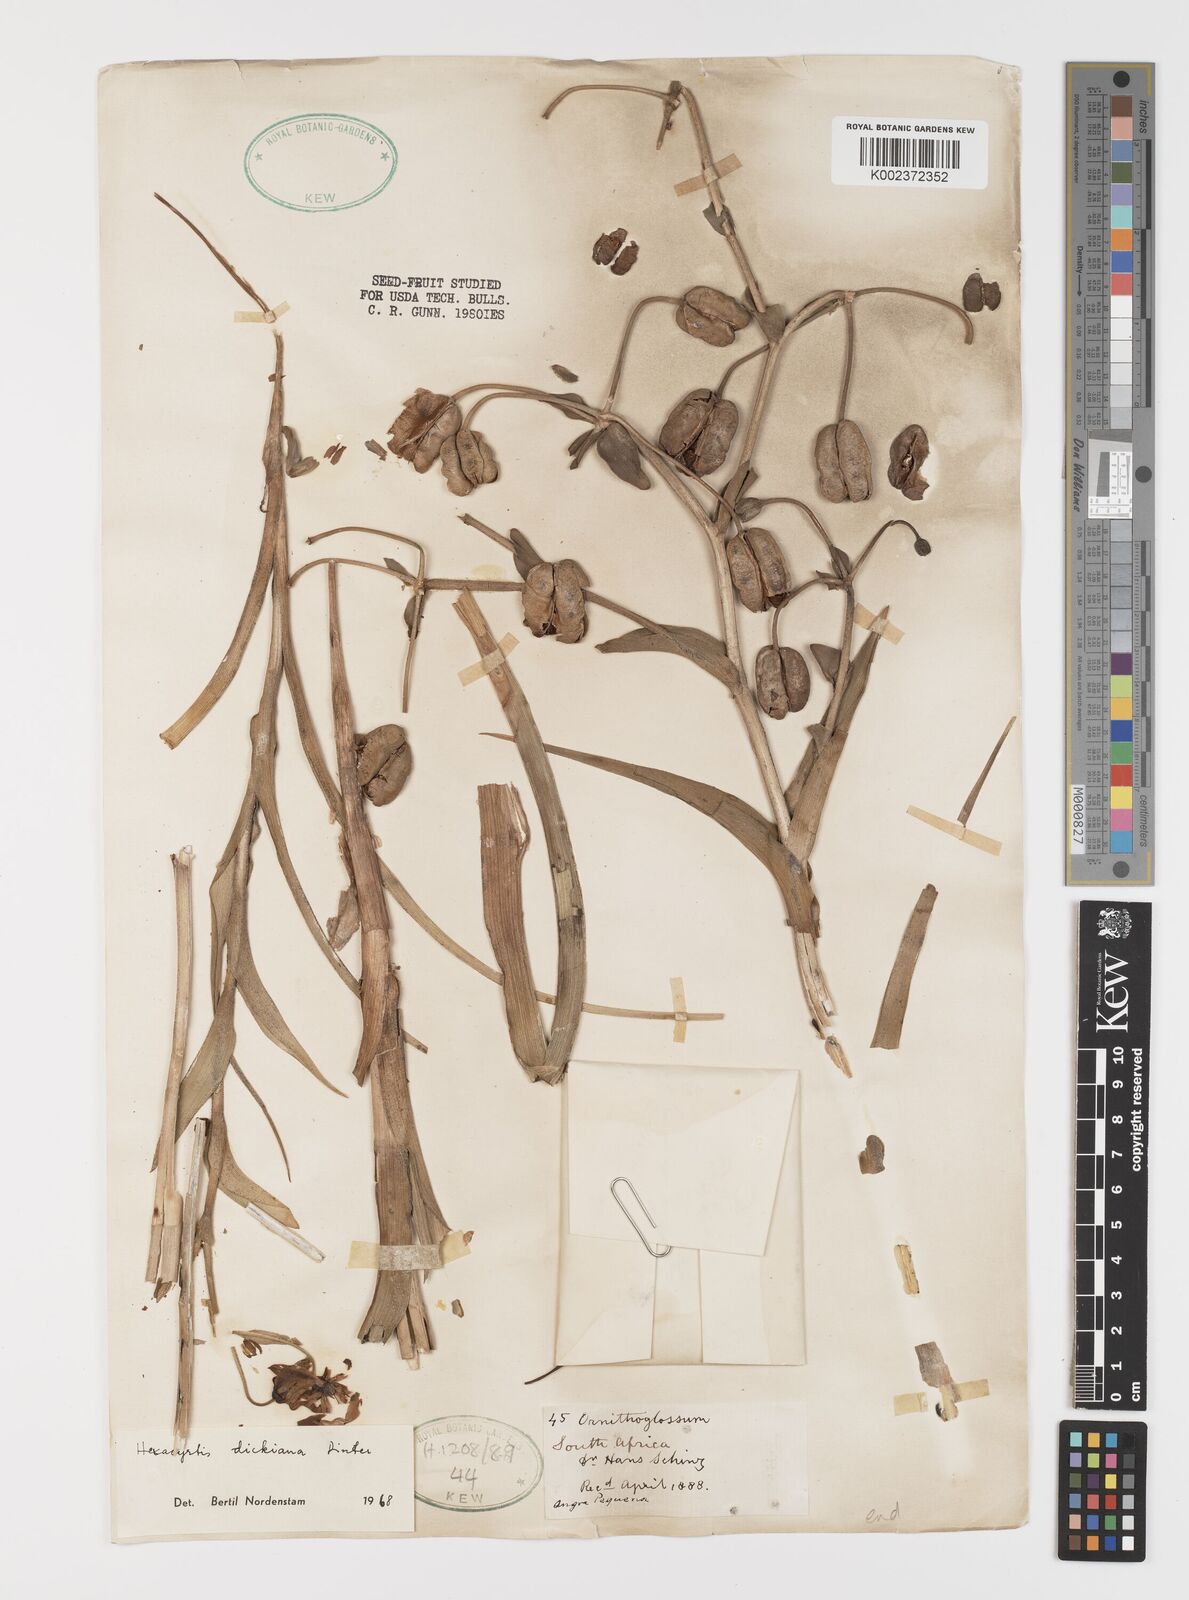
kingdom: Plantae
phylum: Tracheophyta
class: Liliopsida
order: Liliales
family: Colchicaceae
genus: Hexacyrtis
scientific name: Hexacyrtis dickiana
